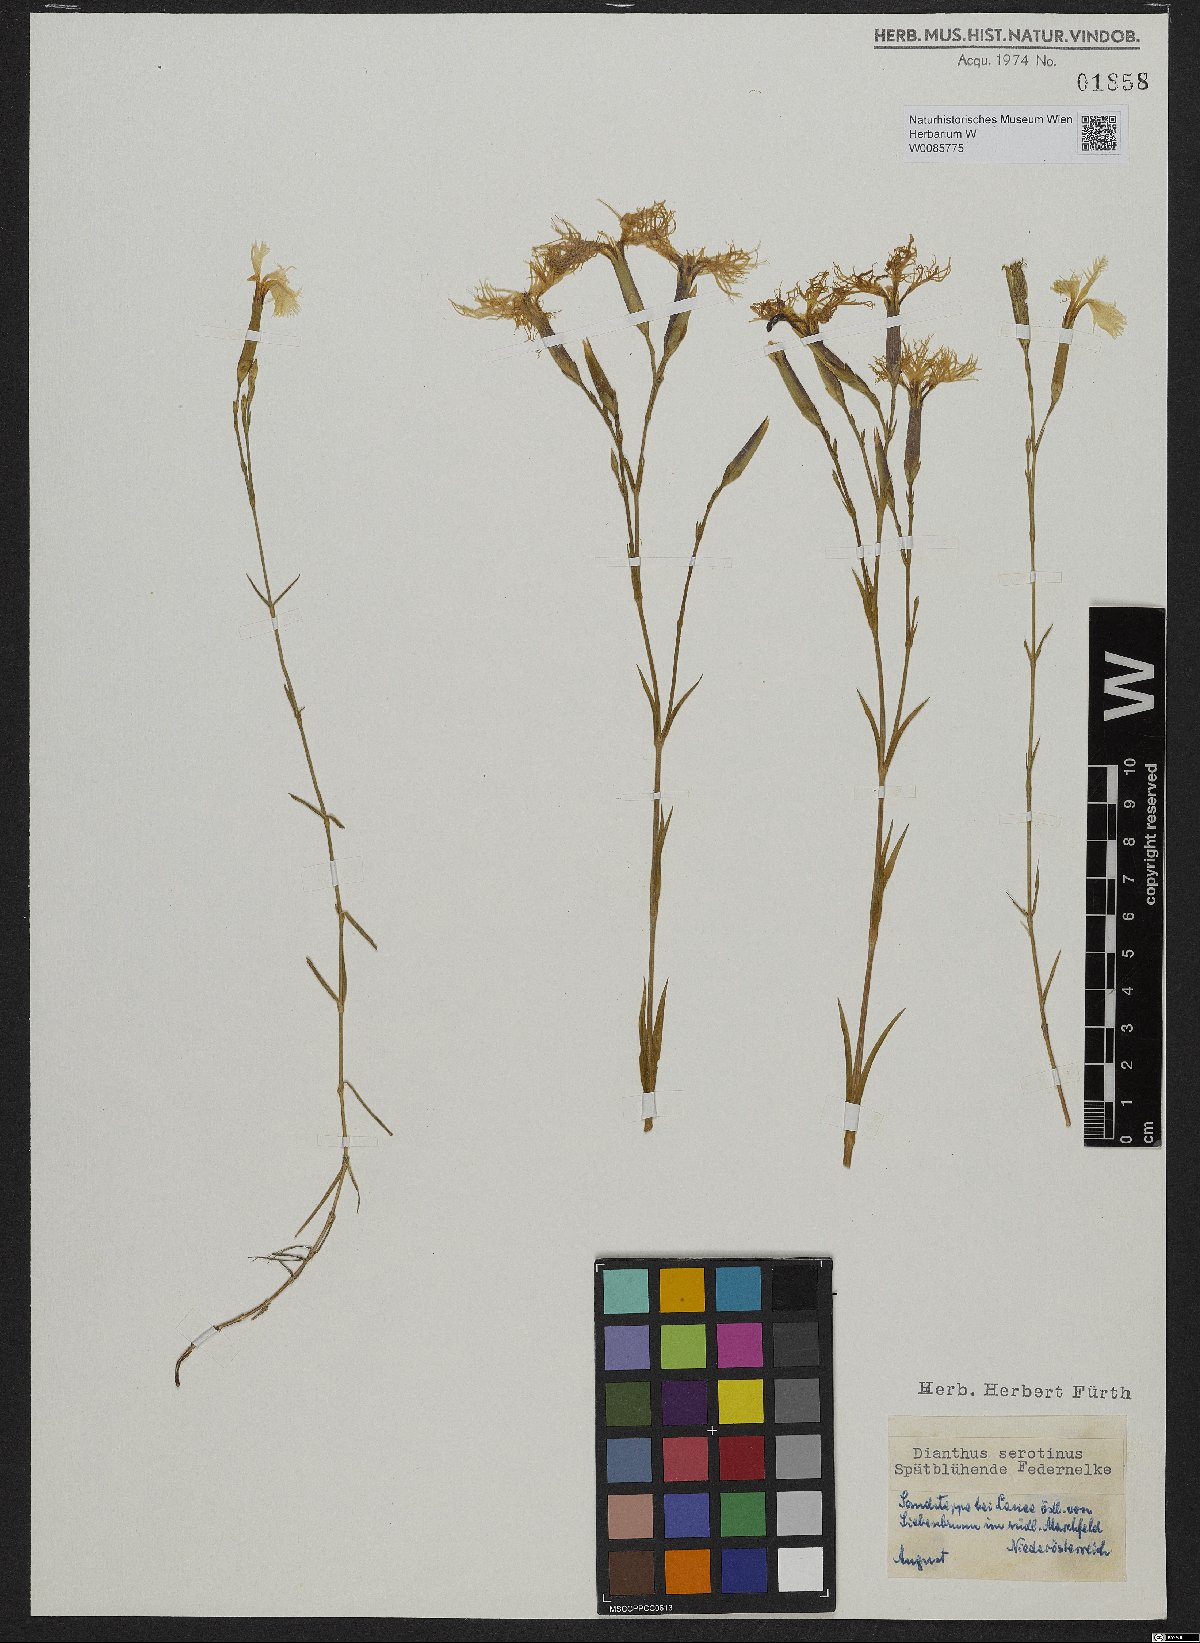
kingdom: Plantae
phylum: Tracheophyta
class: Magnoliopsida
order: Caryophyllales
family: Caryophyllaceae
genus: Dianthus
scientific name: Dianthus serotinus
